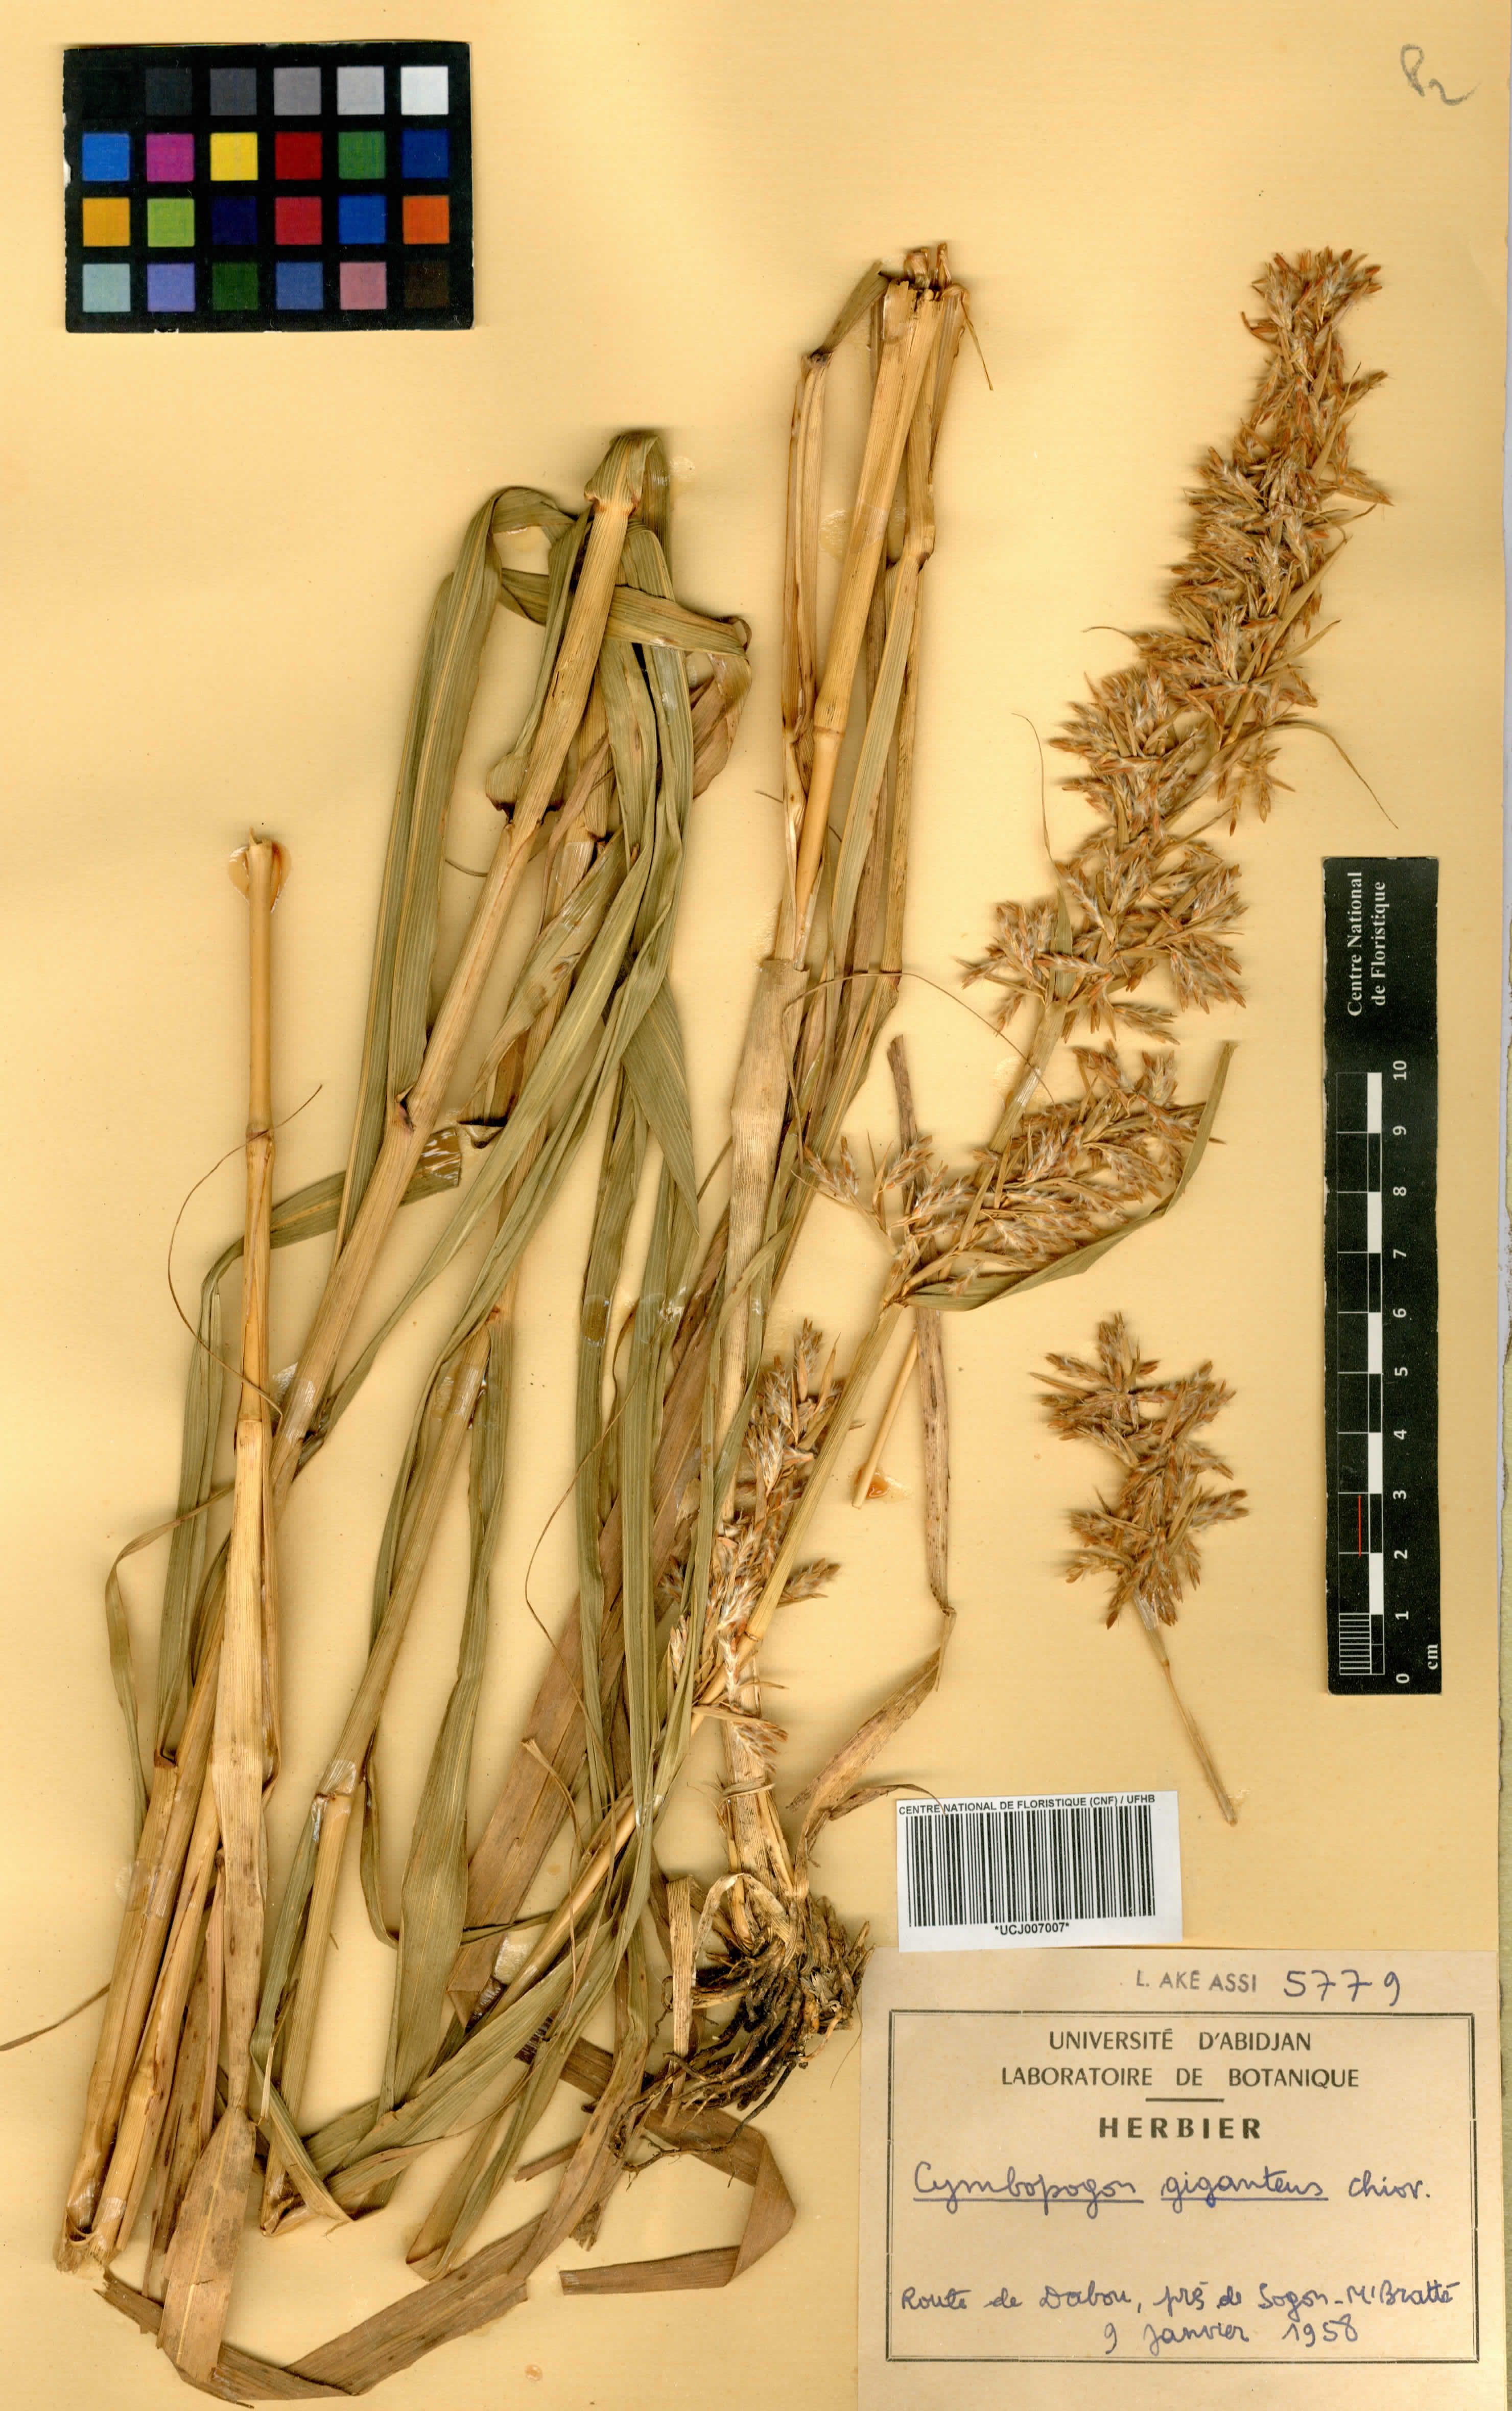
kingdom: Plantae
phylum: Tracheophyta
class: Liliopsida
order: Poales
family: Poaceae
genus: Cymbopogon
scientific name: Cymbopogon giganteus
